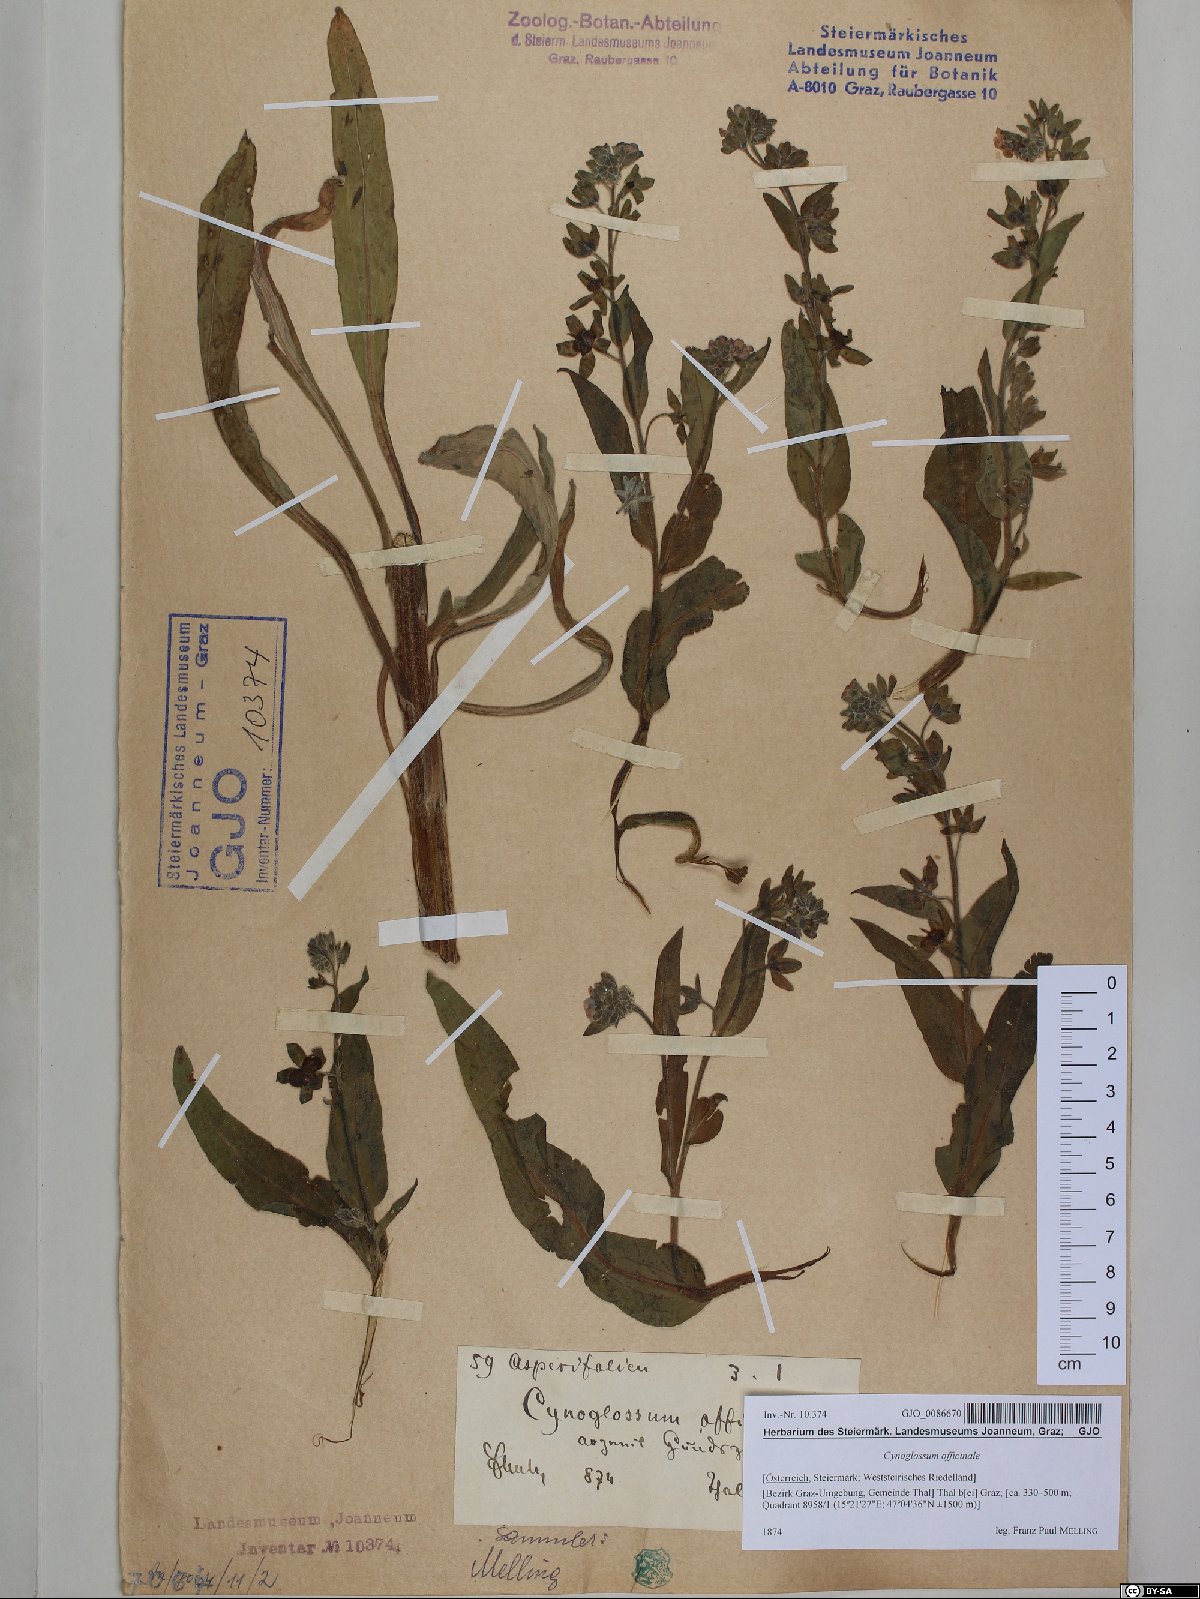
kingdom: Plantae
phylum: Tracheophyta
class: Magnoliopsida
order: Boraginales
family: Boraginaceae
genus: Cynoglossum
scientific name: Cynoglossum officinale
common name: Hound's-tongue
